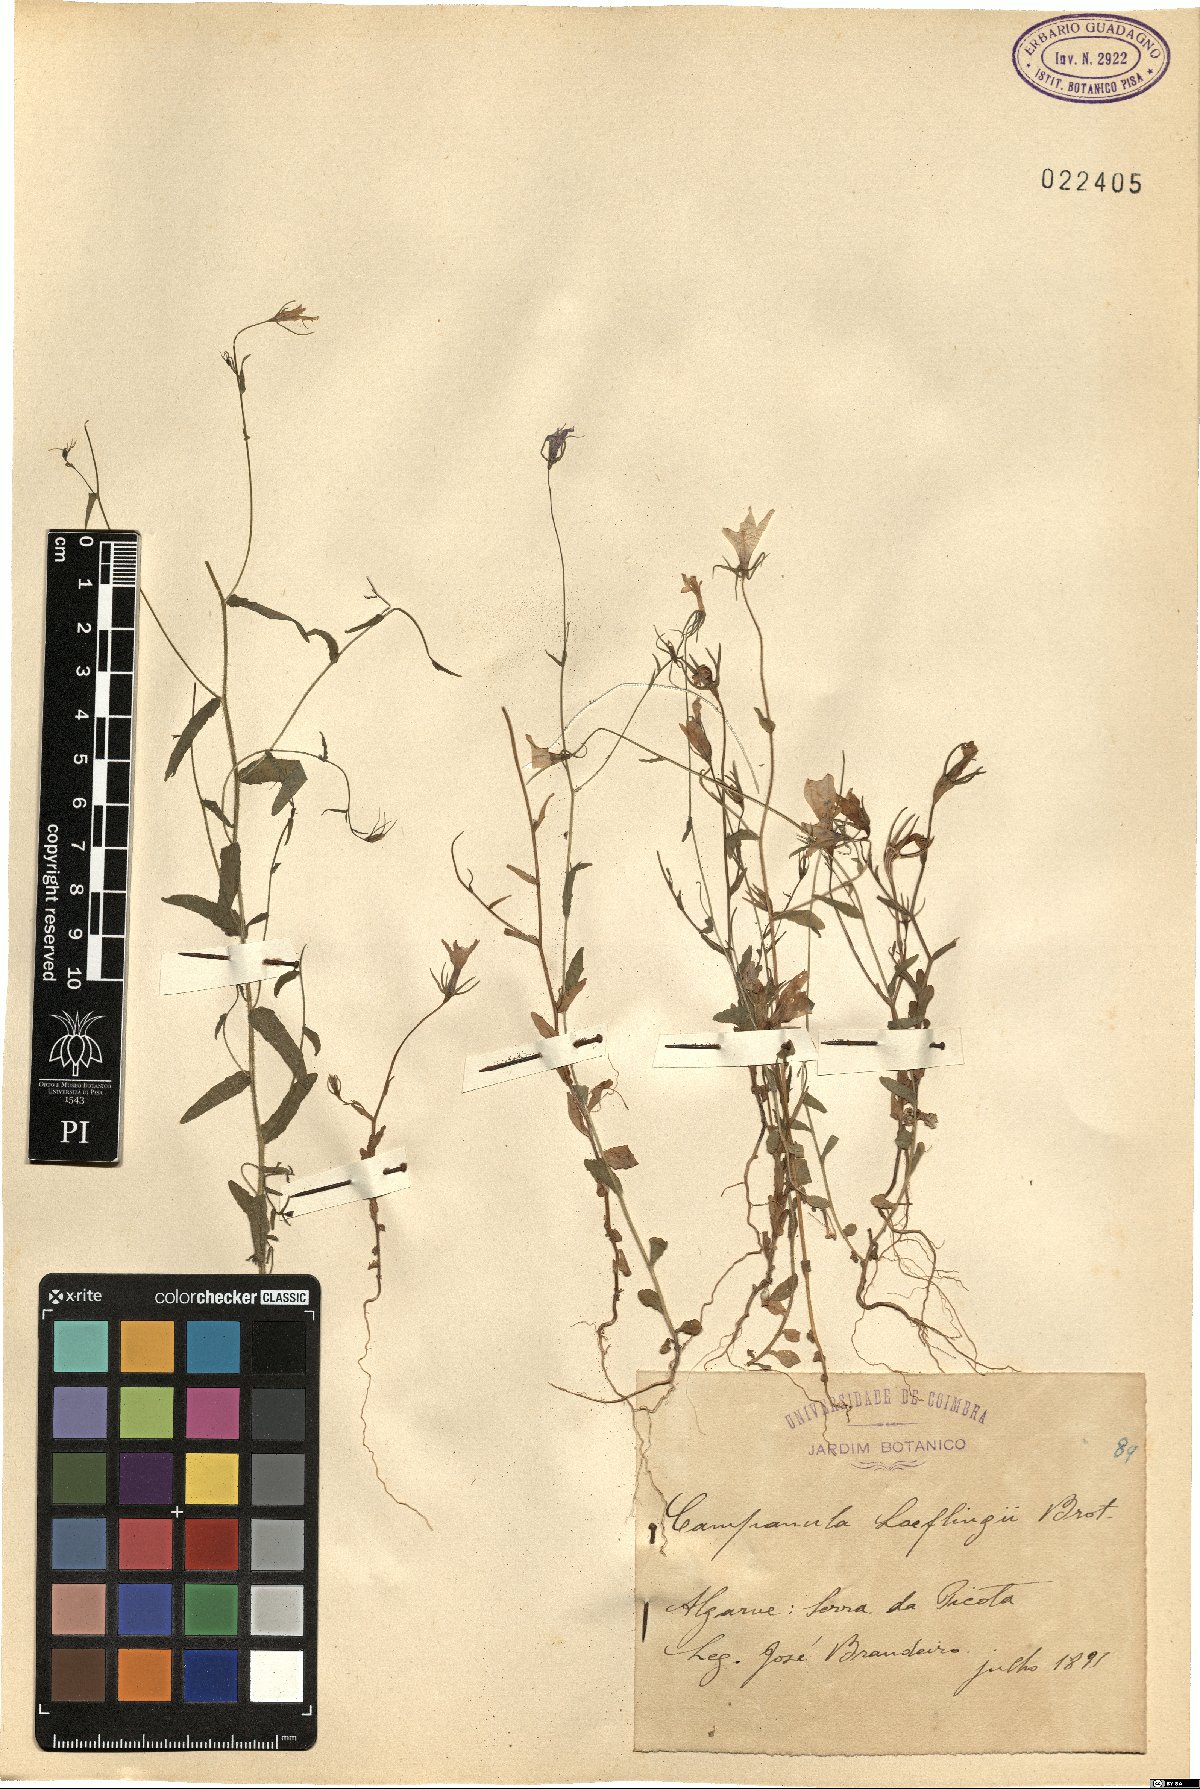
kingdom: Plantae
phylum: Tracheophyta
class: Magnoliopsida
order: Asterales
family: Campanulaceae
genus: Campanula
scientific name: Campanula lusitanica
